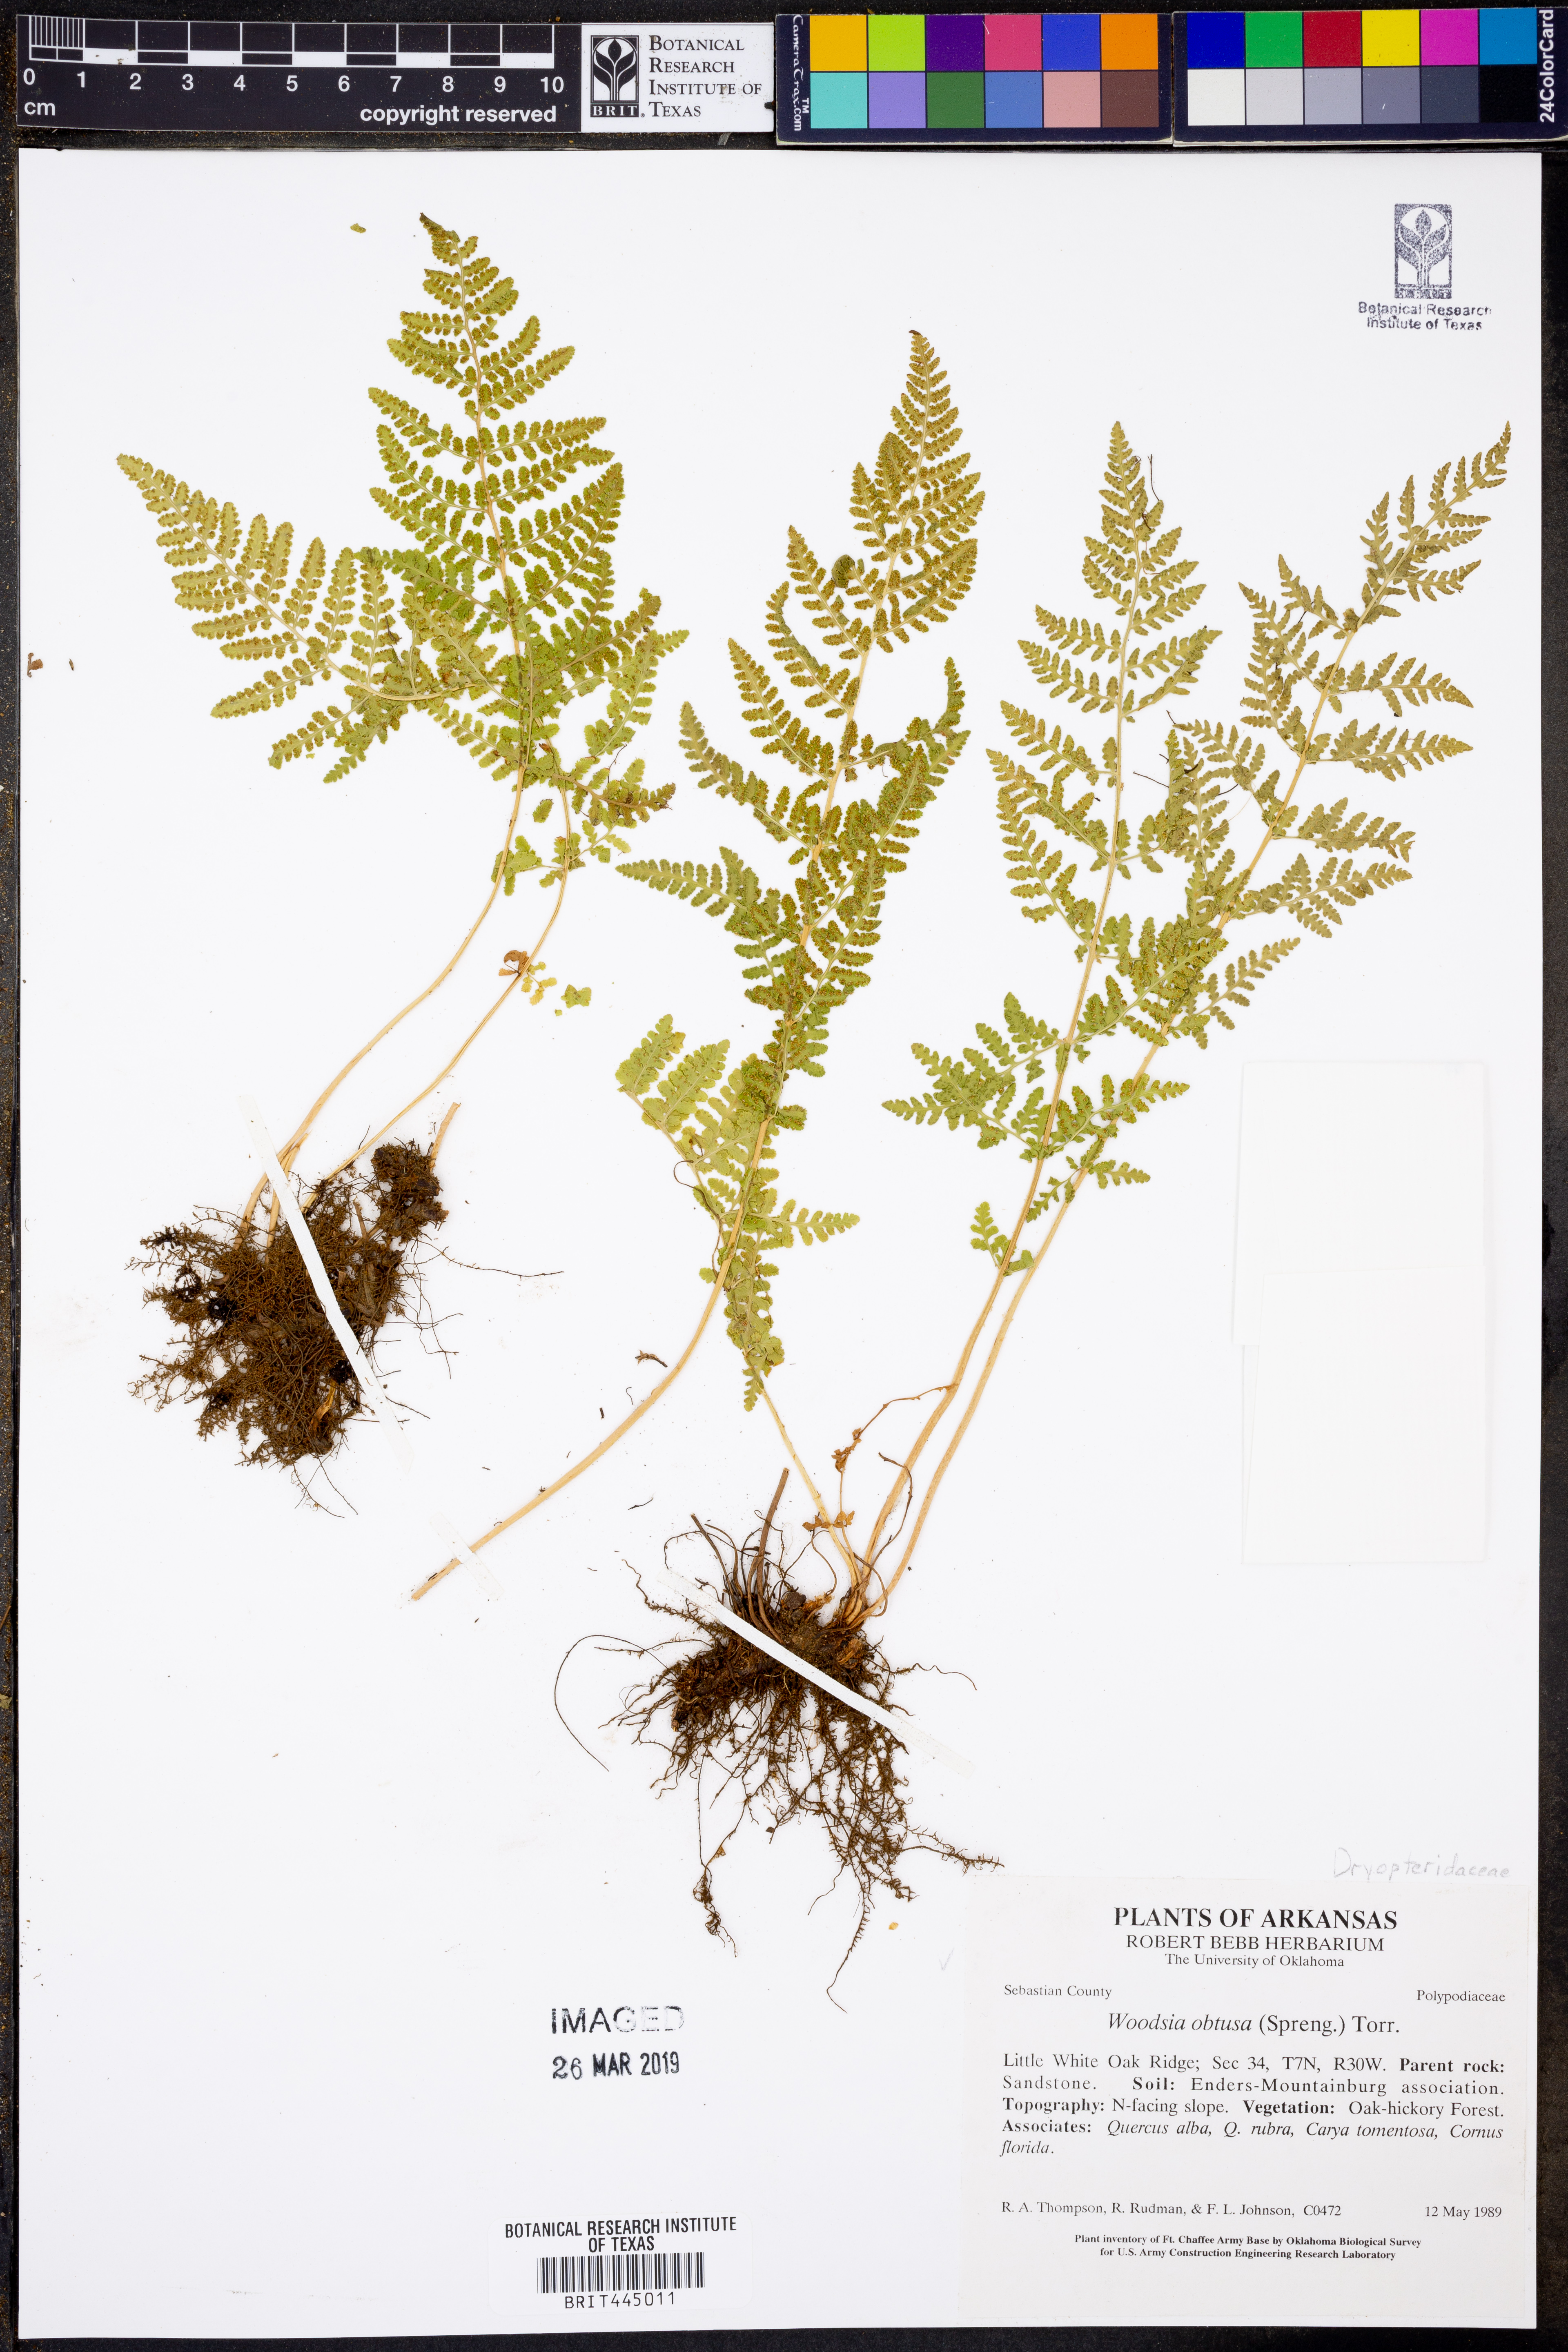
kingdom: Plantae
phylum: Tracheophyta
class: Polypodiopsida
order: Polypodiales
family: Woodsiaceae
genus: Physematium
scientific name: Physematium obtusum
